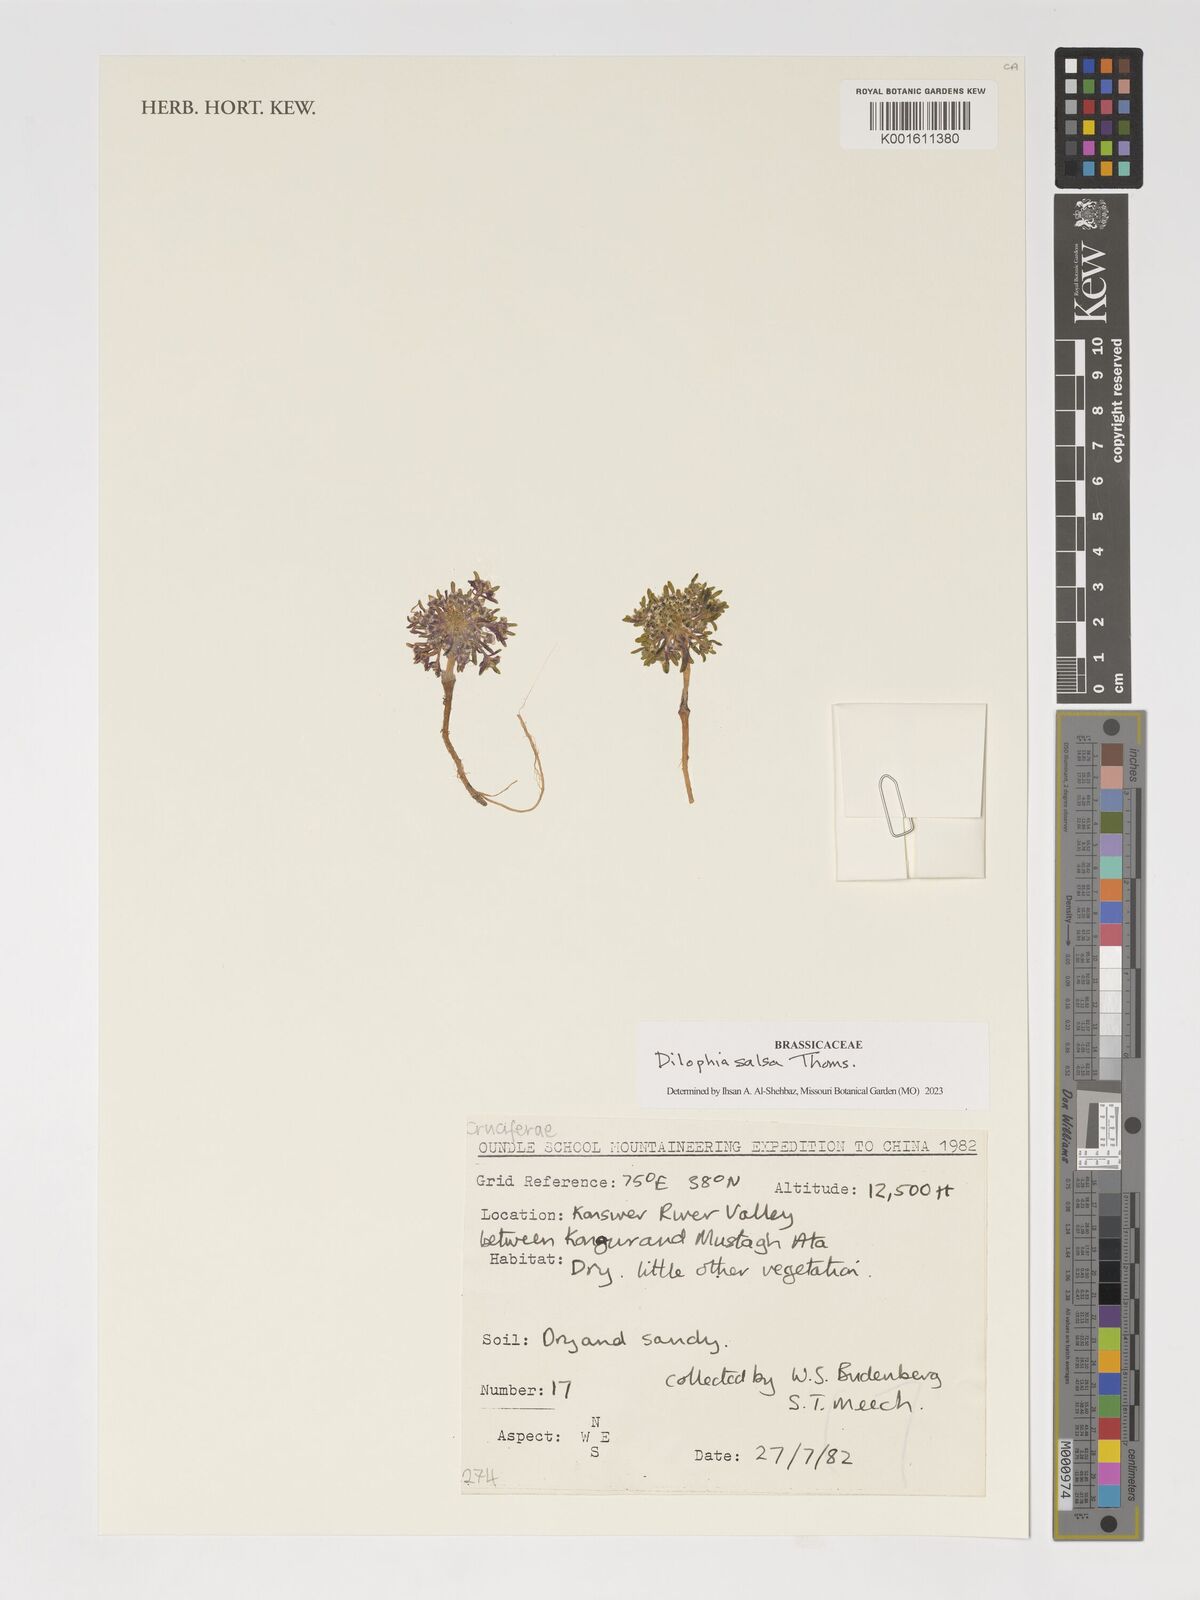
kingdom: Plantae
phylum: Tracheophyta
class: Magnoliopsida
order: Brassicales
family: Brassicaceae
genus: Dilophia
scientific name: Dilophia salsa
